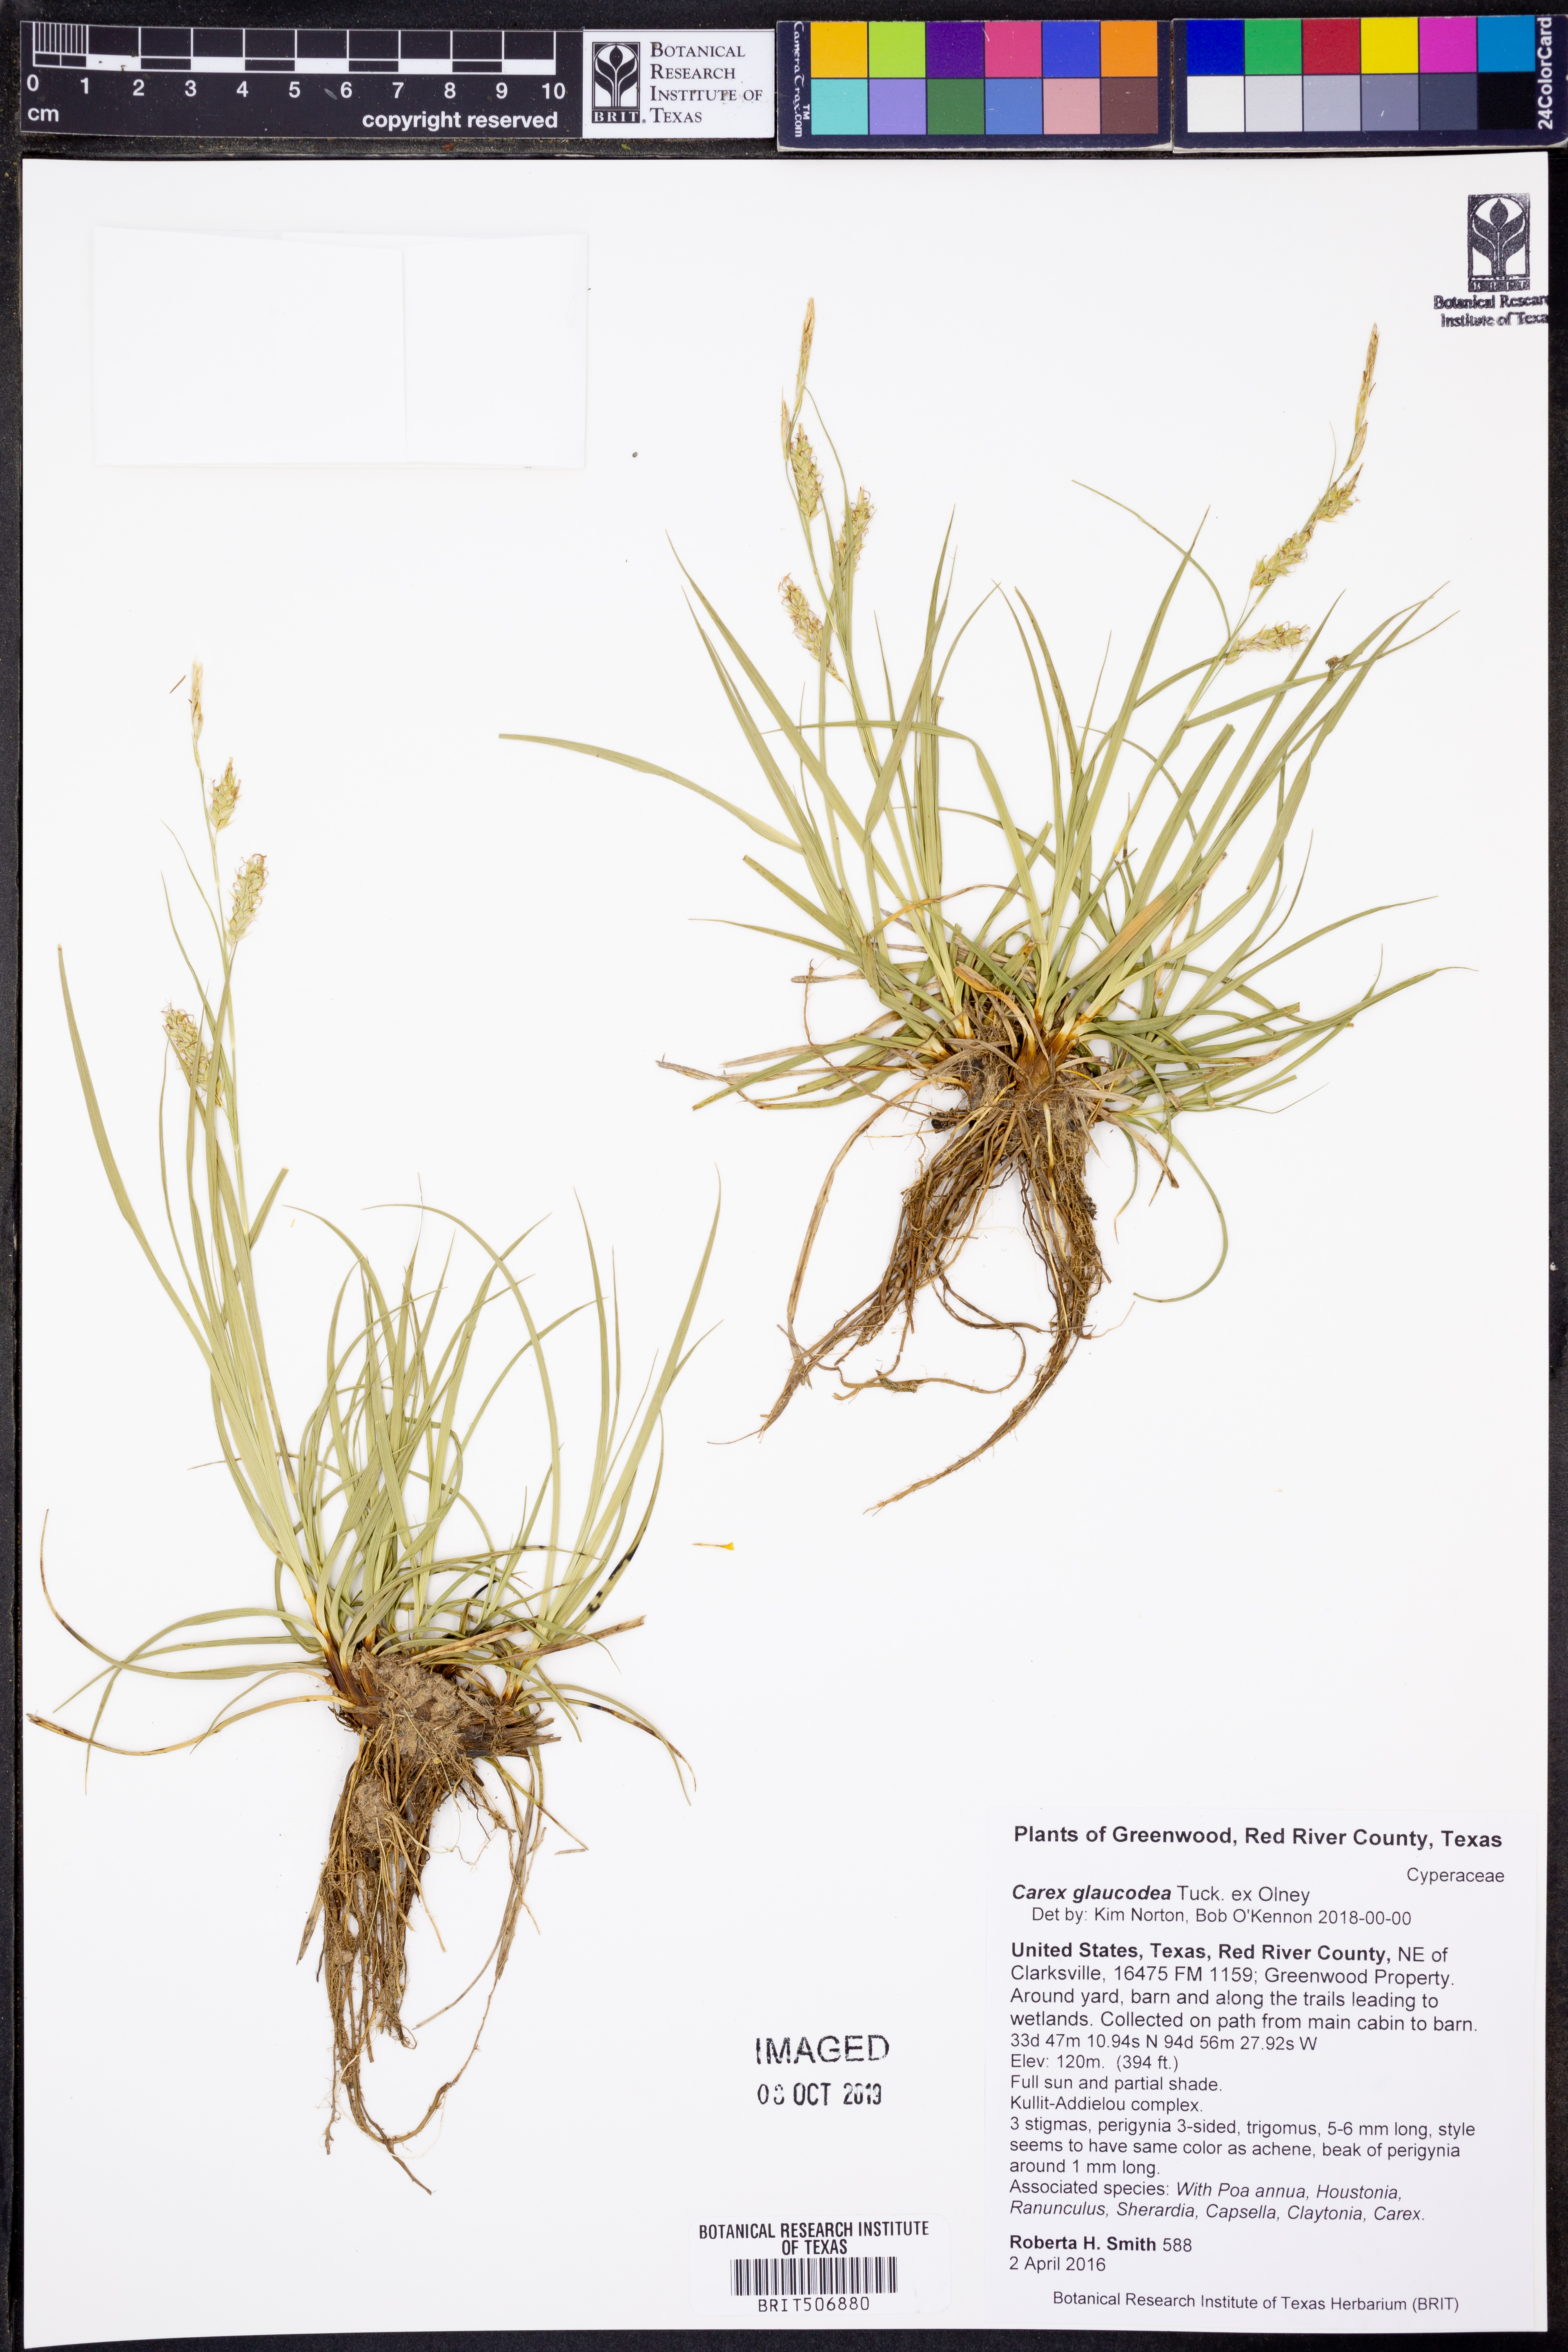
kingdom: Plantae
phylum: Tracheophyta
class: Liliopsida
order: Poales
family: Cyperaceae
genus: Carex
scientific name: Carex glaucodea
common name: Blue sedge
